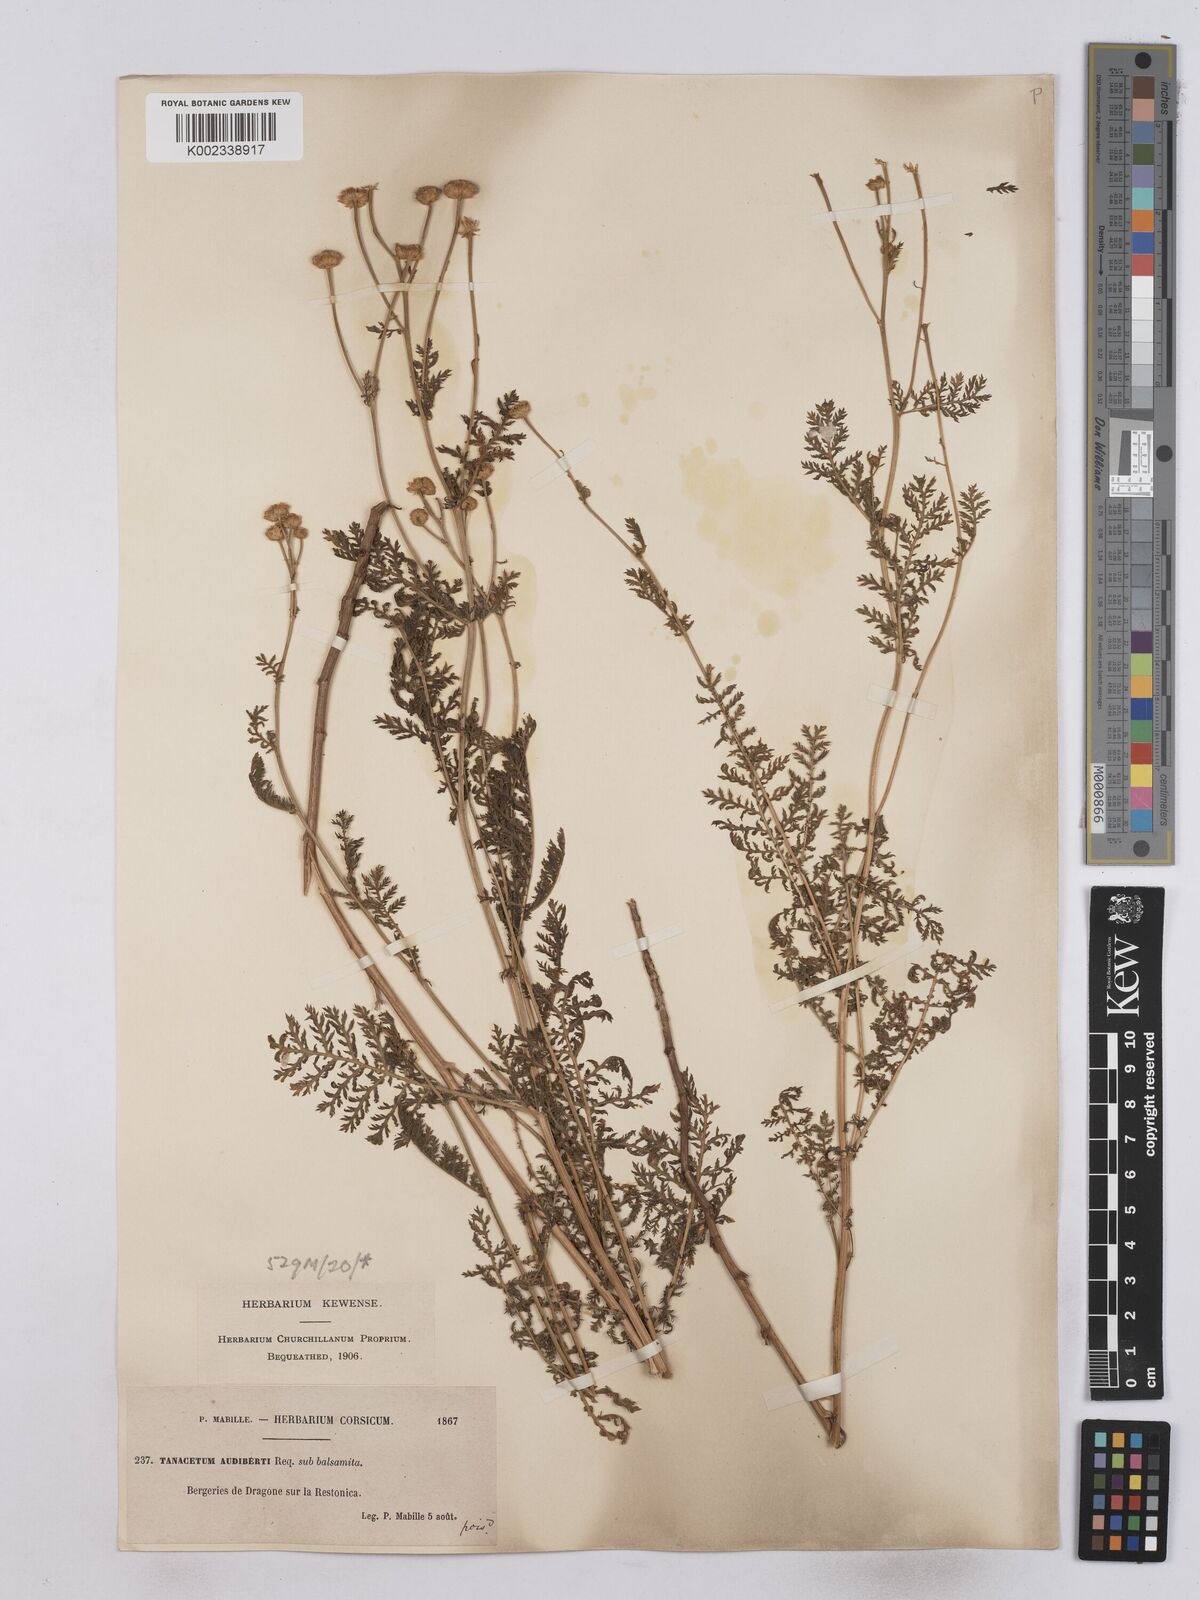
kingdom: Plantae
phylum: Tracheophyta
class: Magnoliopsida
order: Asterales
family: Asteraceae
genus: Tanacetum
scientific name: Tanacetum audibertii
